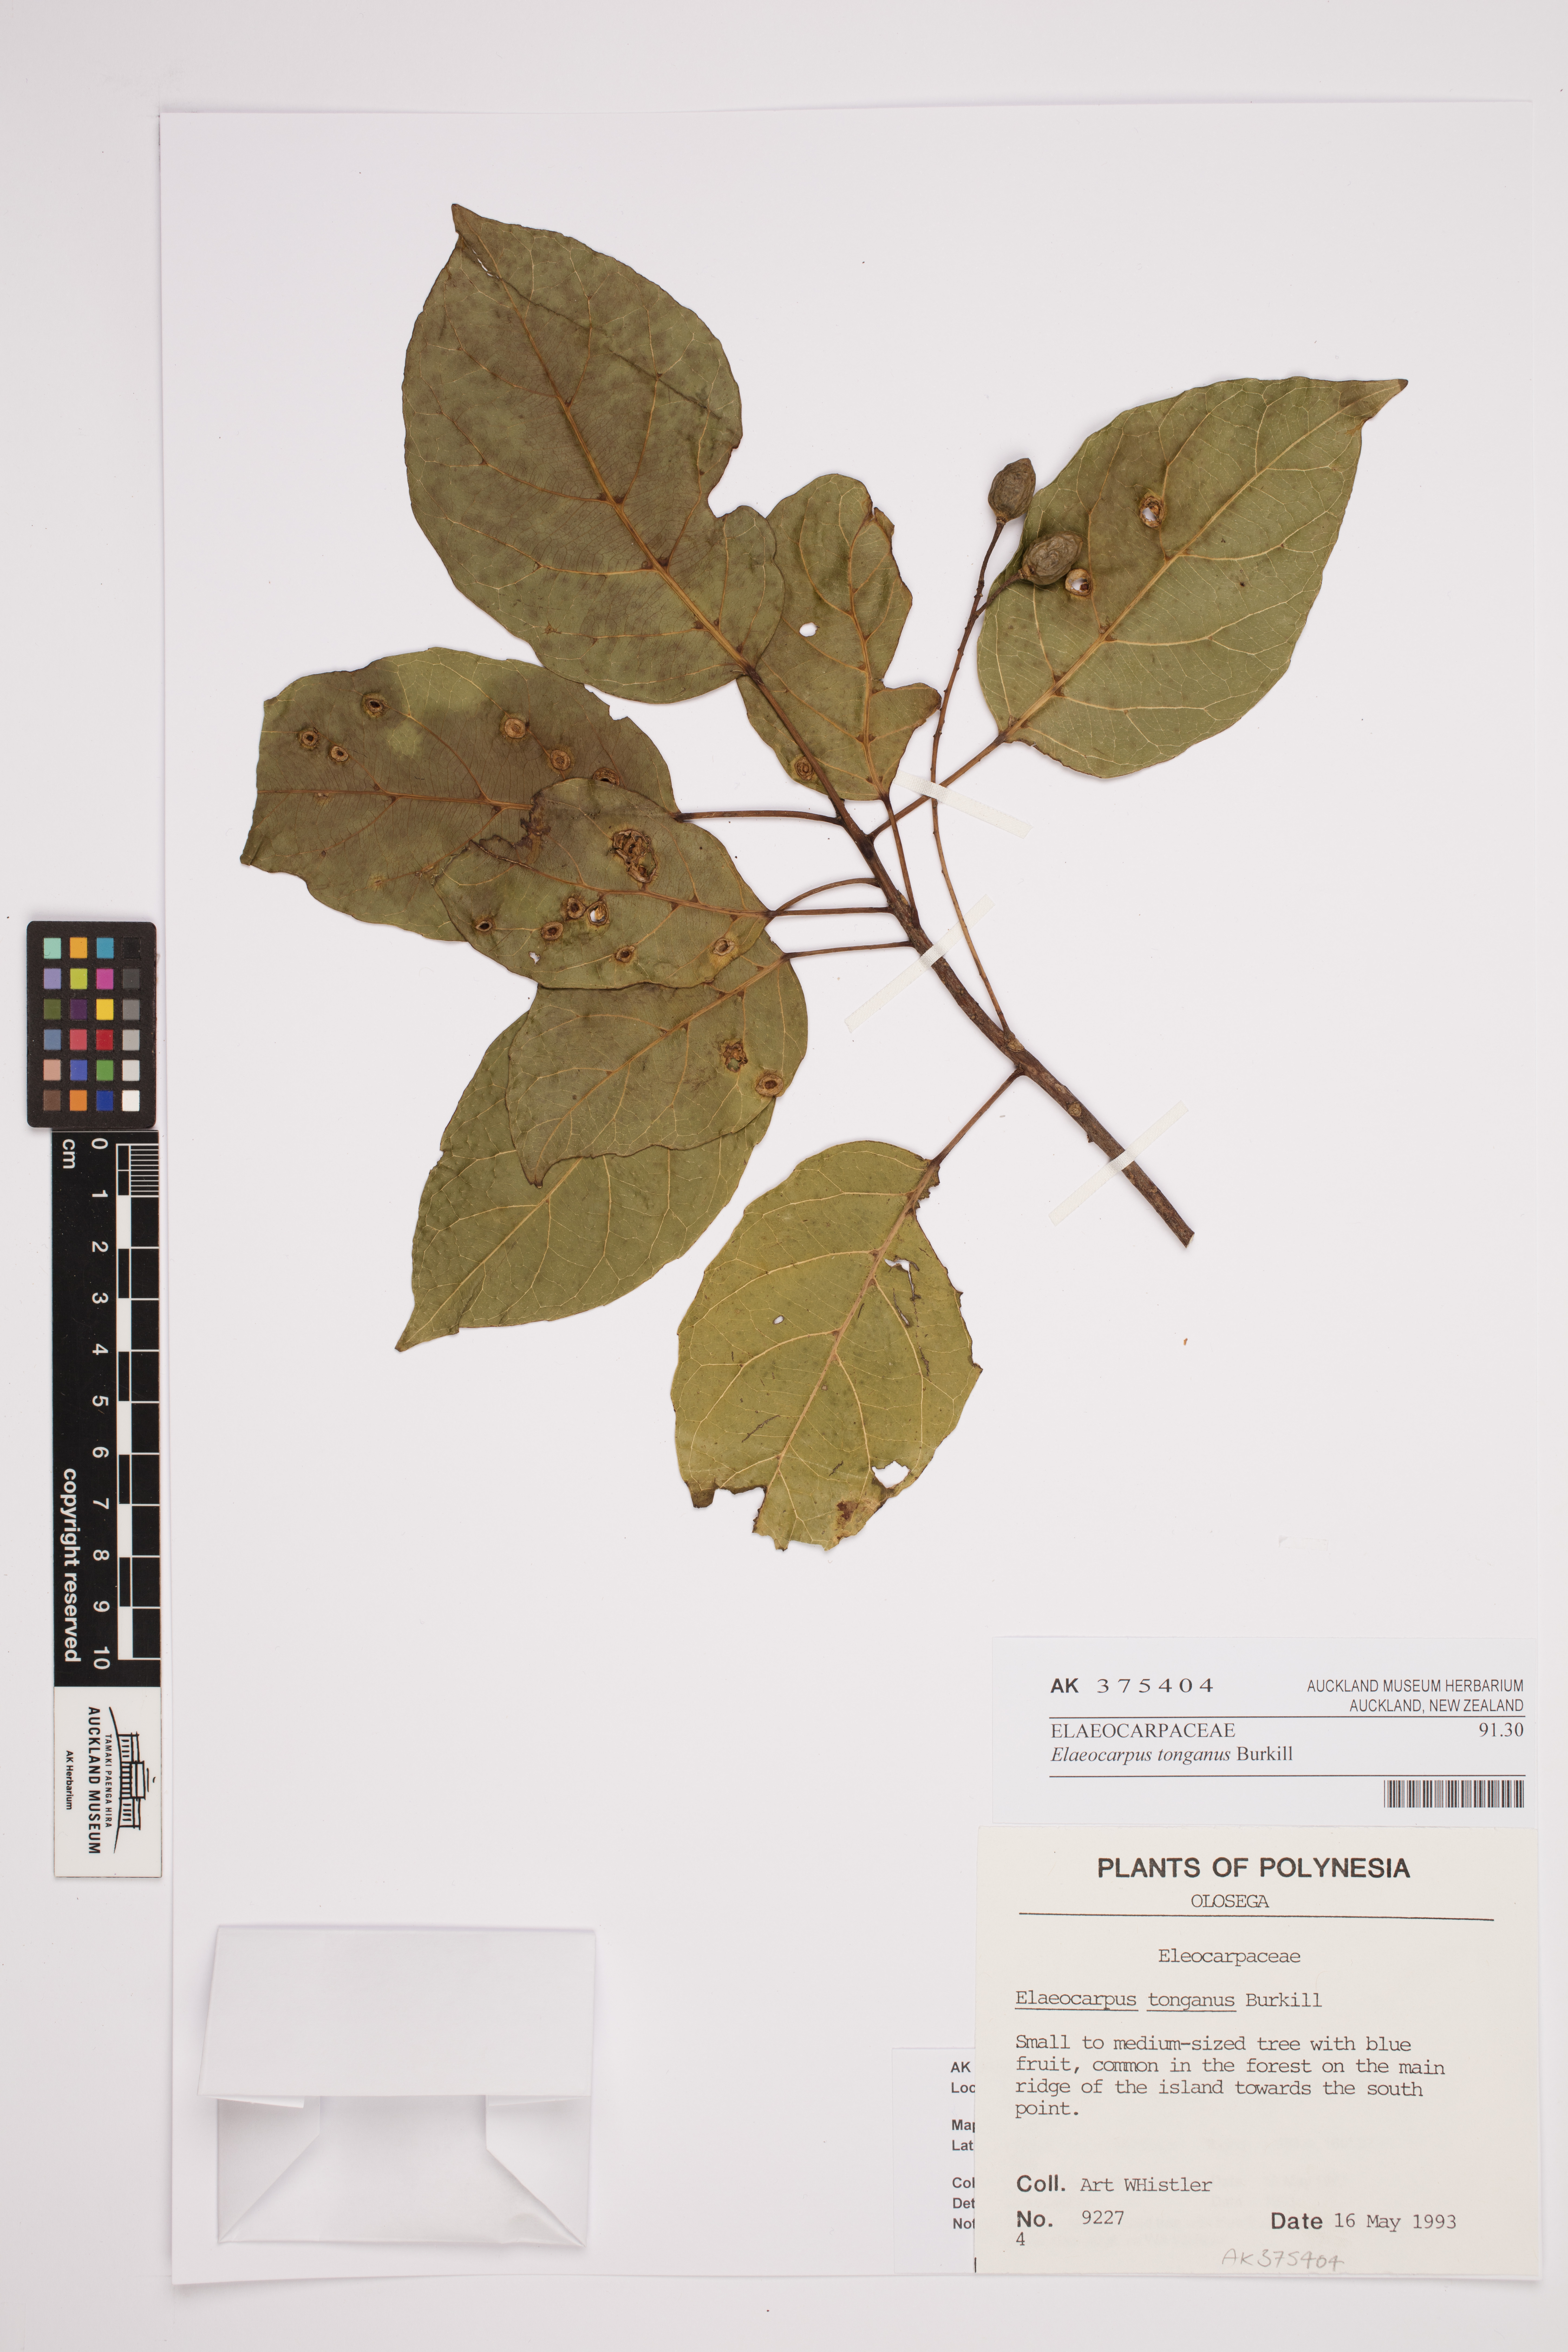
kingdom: Plantae
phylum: Tracheophyta
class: Magnoliopsida
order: Oxalidales
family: Elaeocarpaceae
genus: Elaeocarpus
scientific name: Elaeocarpus floridanus
